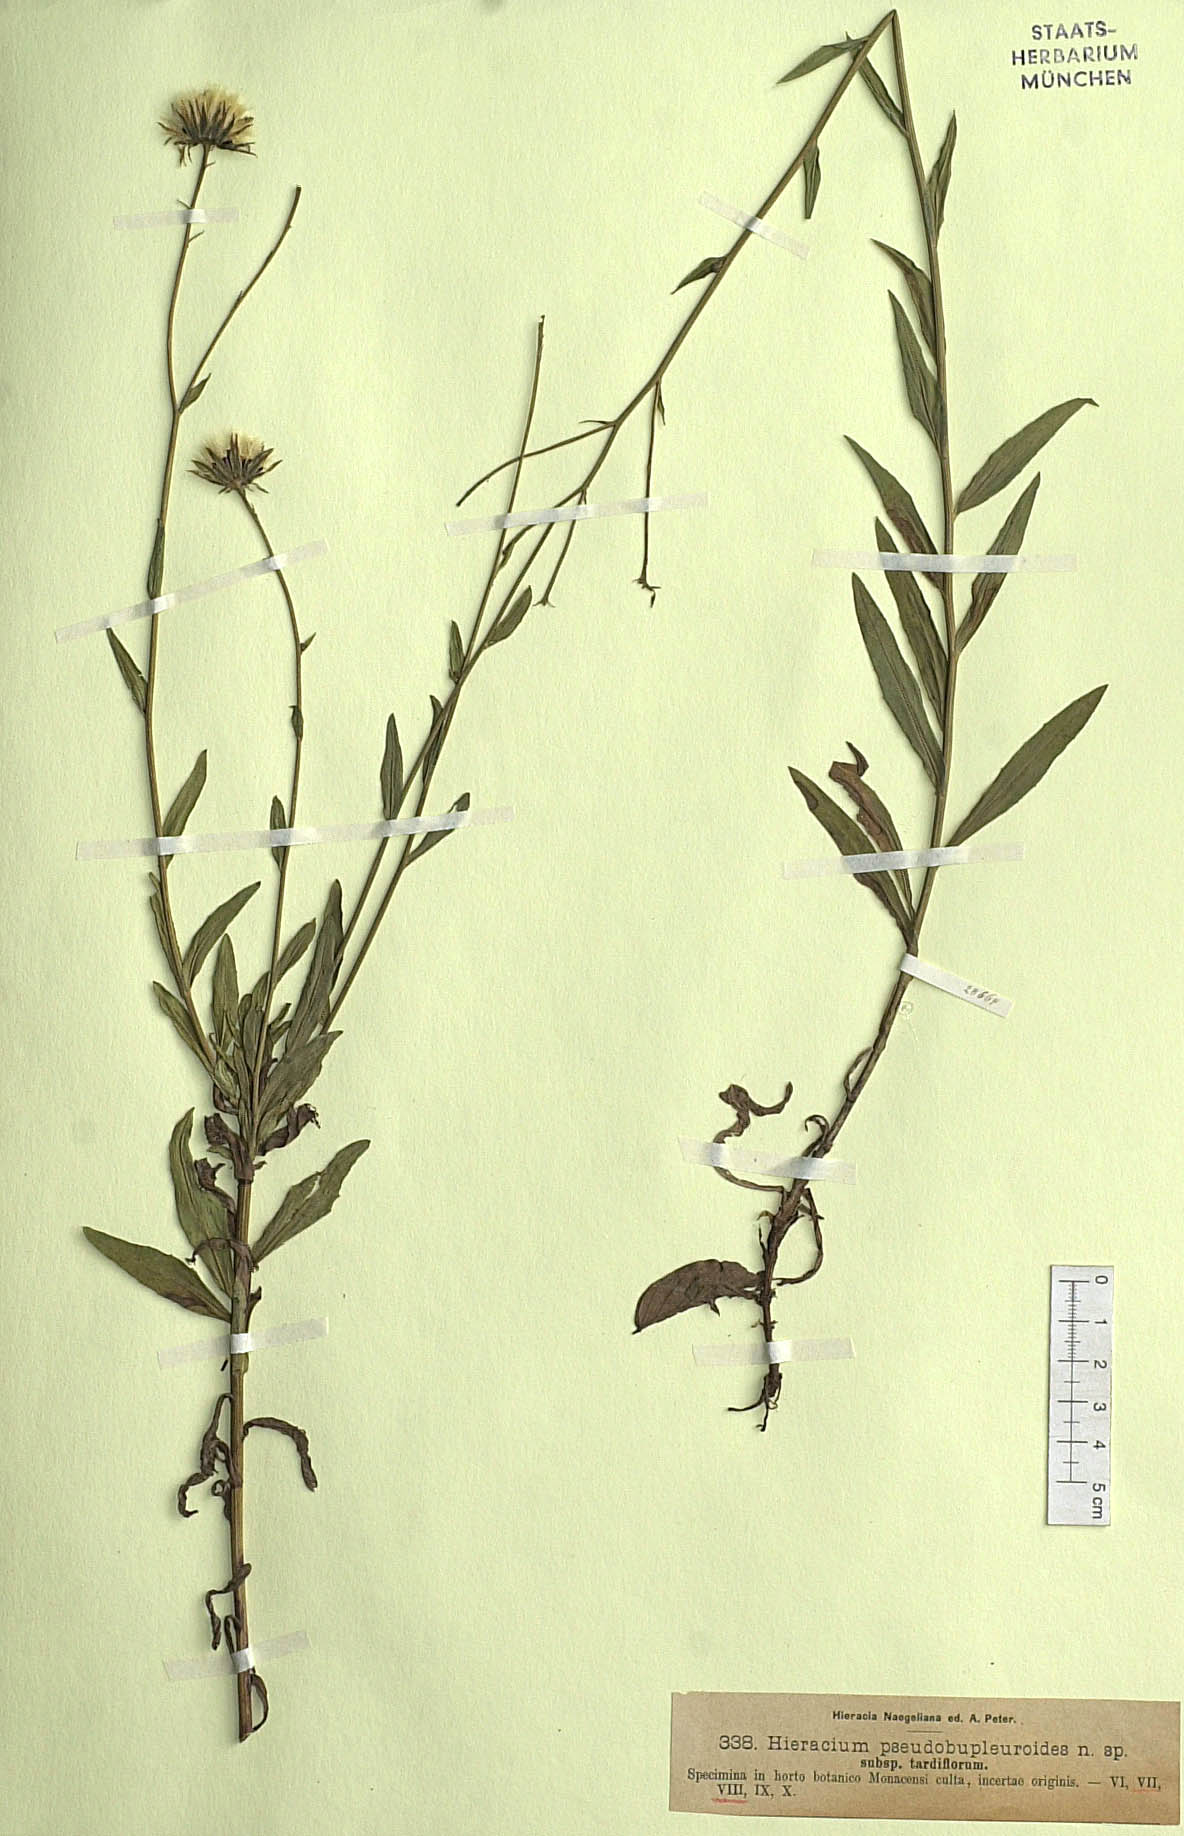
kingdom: Plantae
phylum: Tracheophyta
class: Magnoliopsida
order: Asterales
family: Asteraceae
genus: Hieracium
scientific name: Hieracium vindobonense
